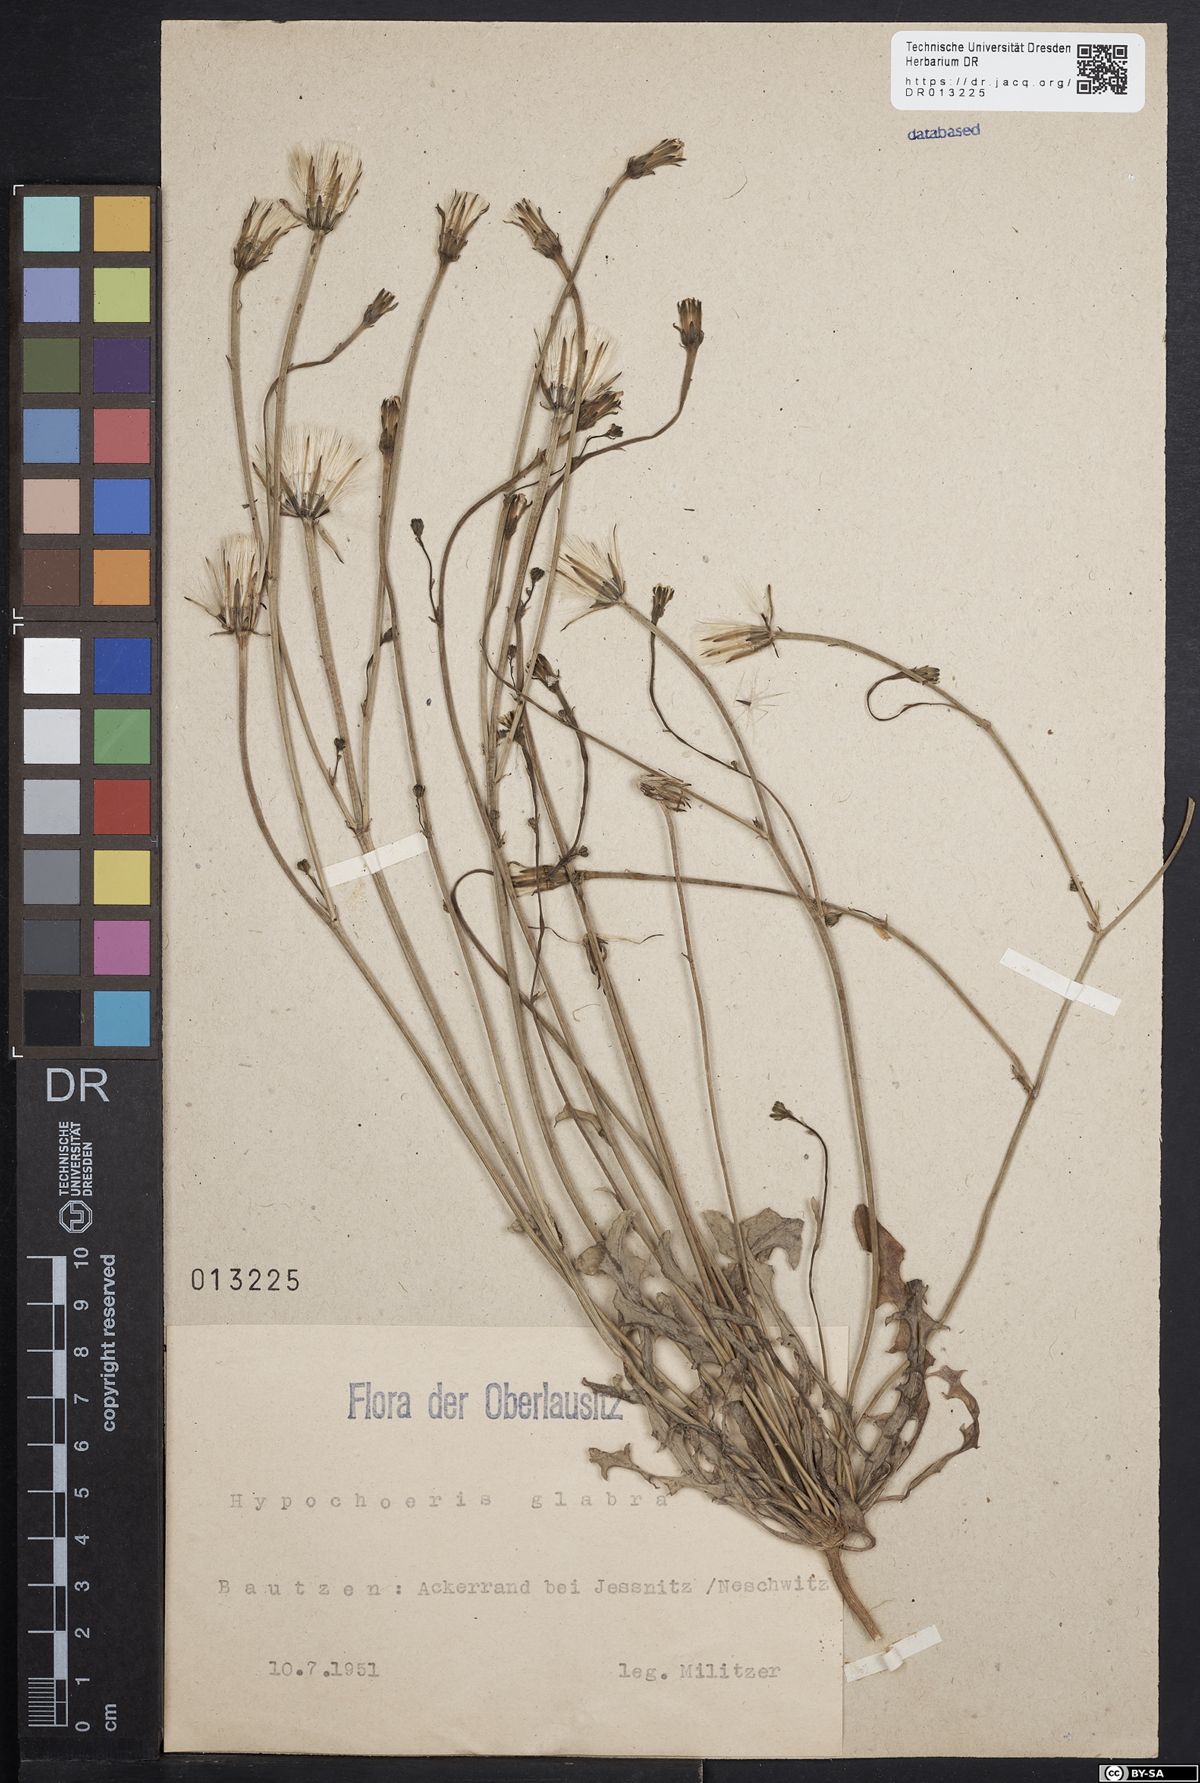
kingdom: Plantae
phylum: Tracheophyta
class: Magnoliopsida
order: Asterales
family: Asteraceae
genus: Hypochaeris
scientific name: Hypochaeris glabra
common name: Smooth catsear
